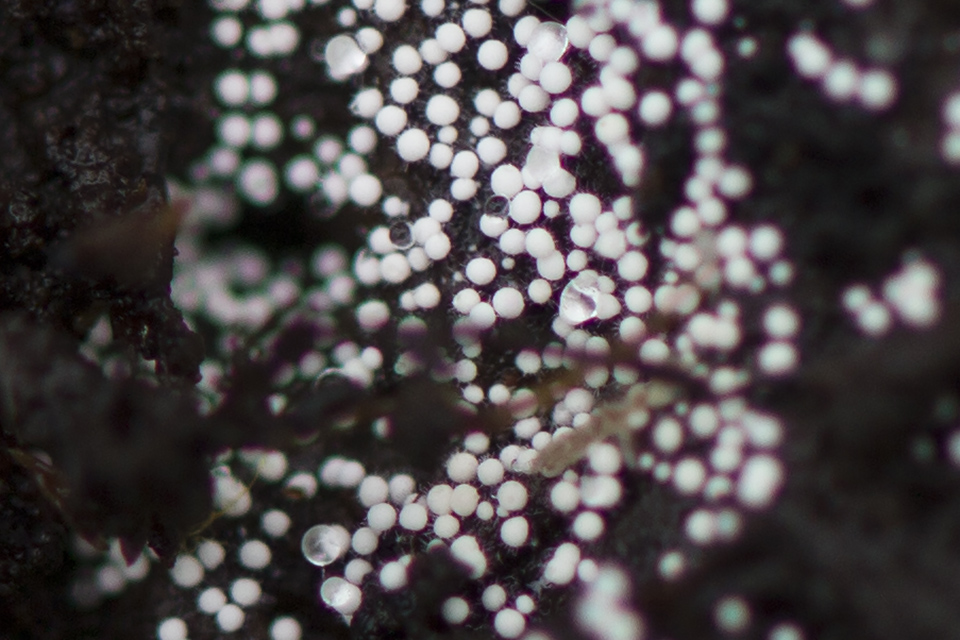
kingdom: Fungi
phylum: Basidiomycota
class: Agaricomycetes
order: Trechisporales
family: Hydnodontaceae
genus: Subulicystidium
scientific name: Subulicystidium longisporum
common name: almindelig pigtrådshinde
